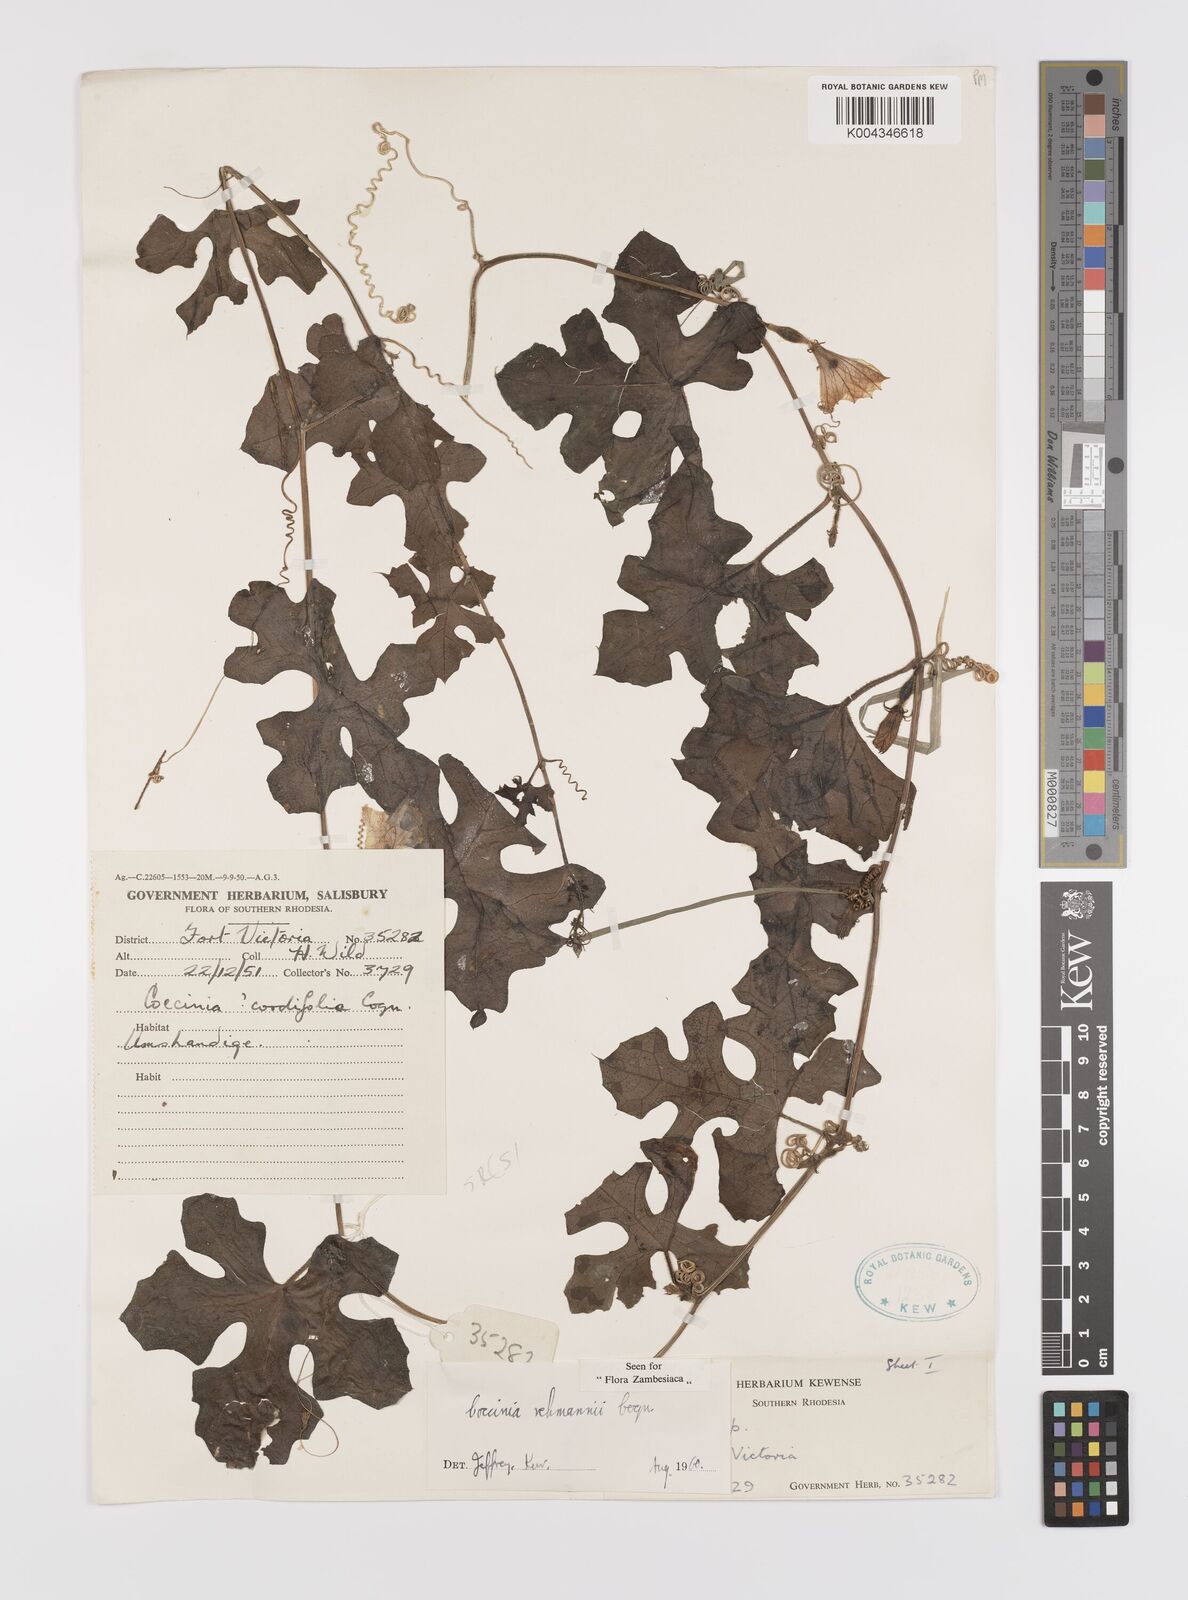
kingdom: Plantae
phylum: Tracheophyta
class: Magnoliopsida
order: Cucurbitales
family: Cucurbitaceae
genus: Coccinia
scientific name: Coccinia rehmannii
